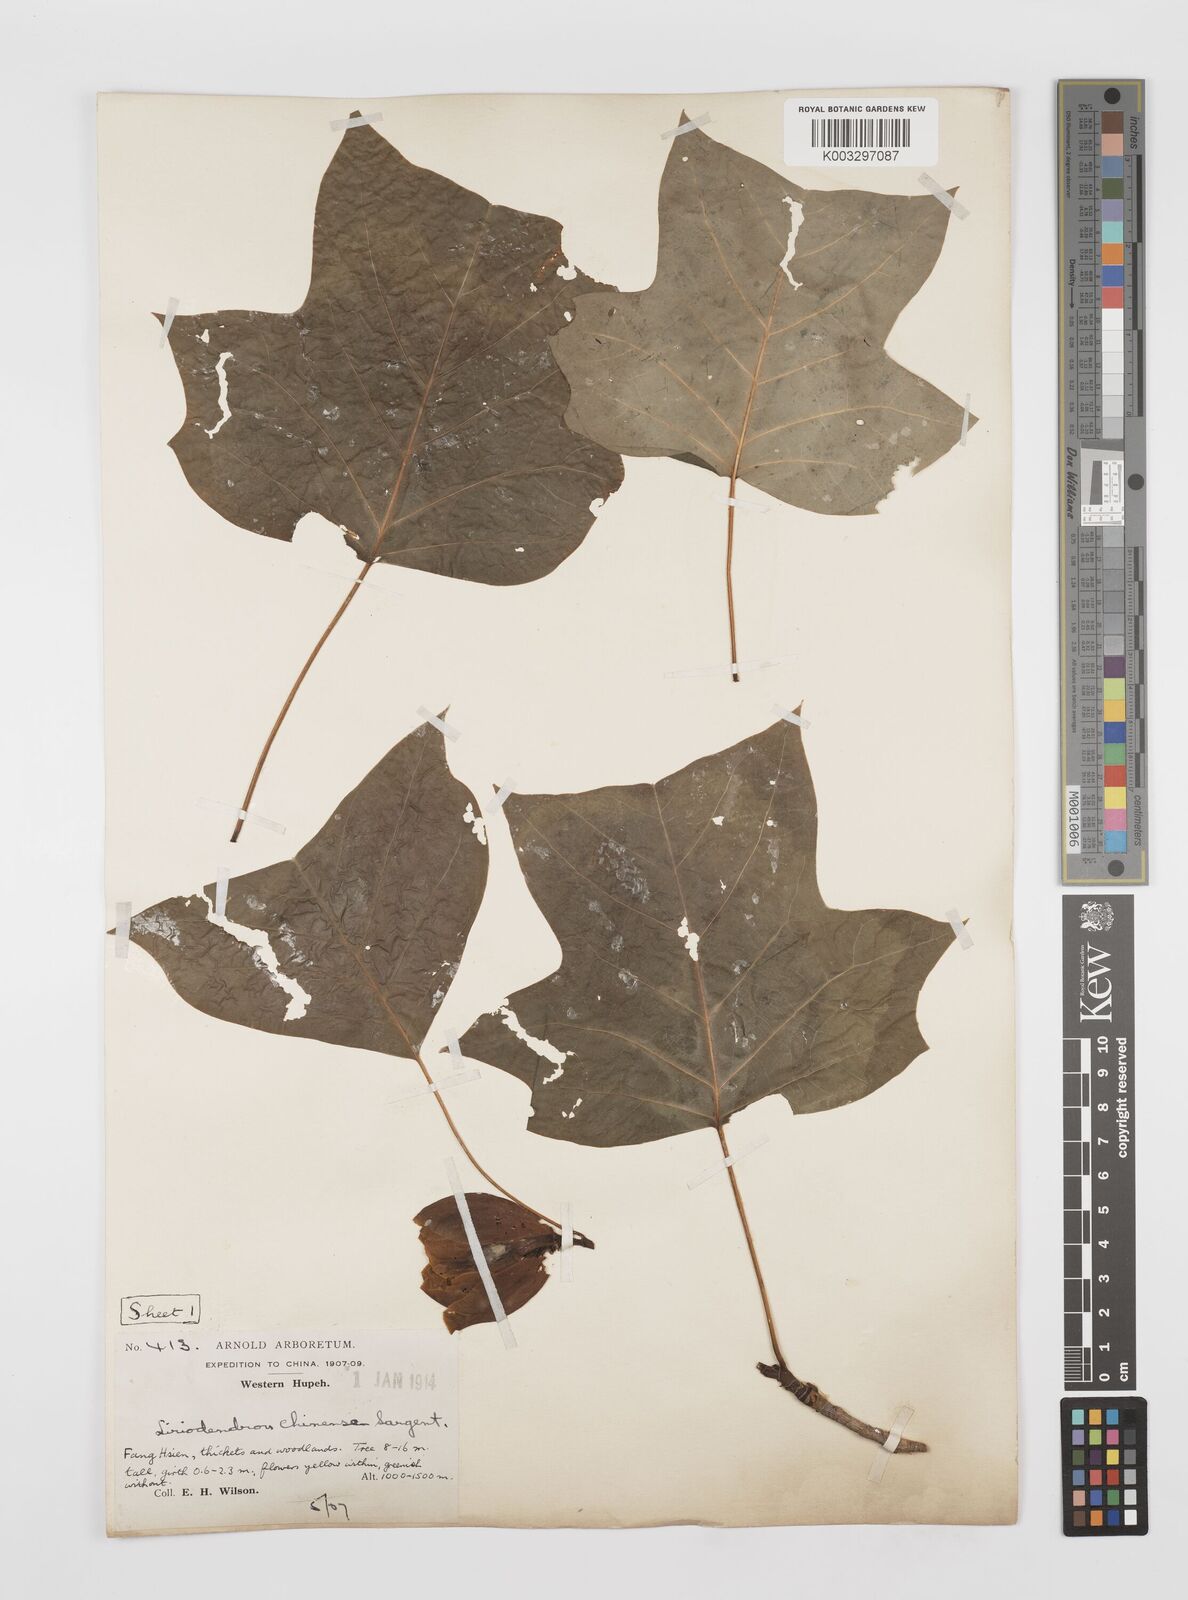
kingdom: Plantae
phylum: Tracheophyta
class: Magnoliopsida
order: Magnoliales
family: Magnoliaceae
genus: Liriodendron
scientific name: Liriodendron chinense
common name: Chinese tuliptree
